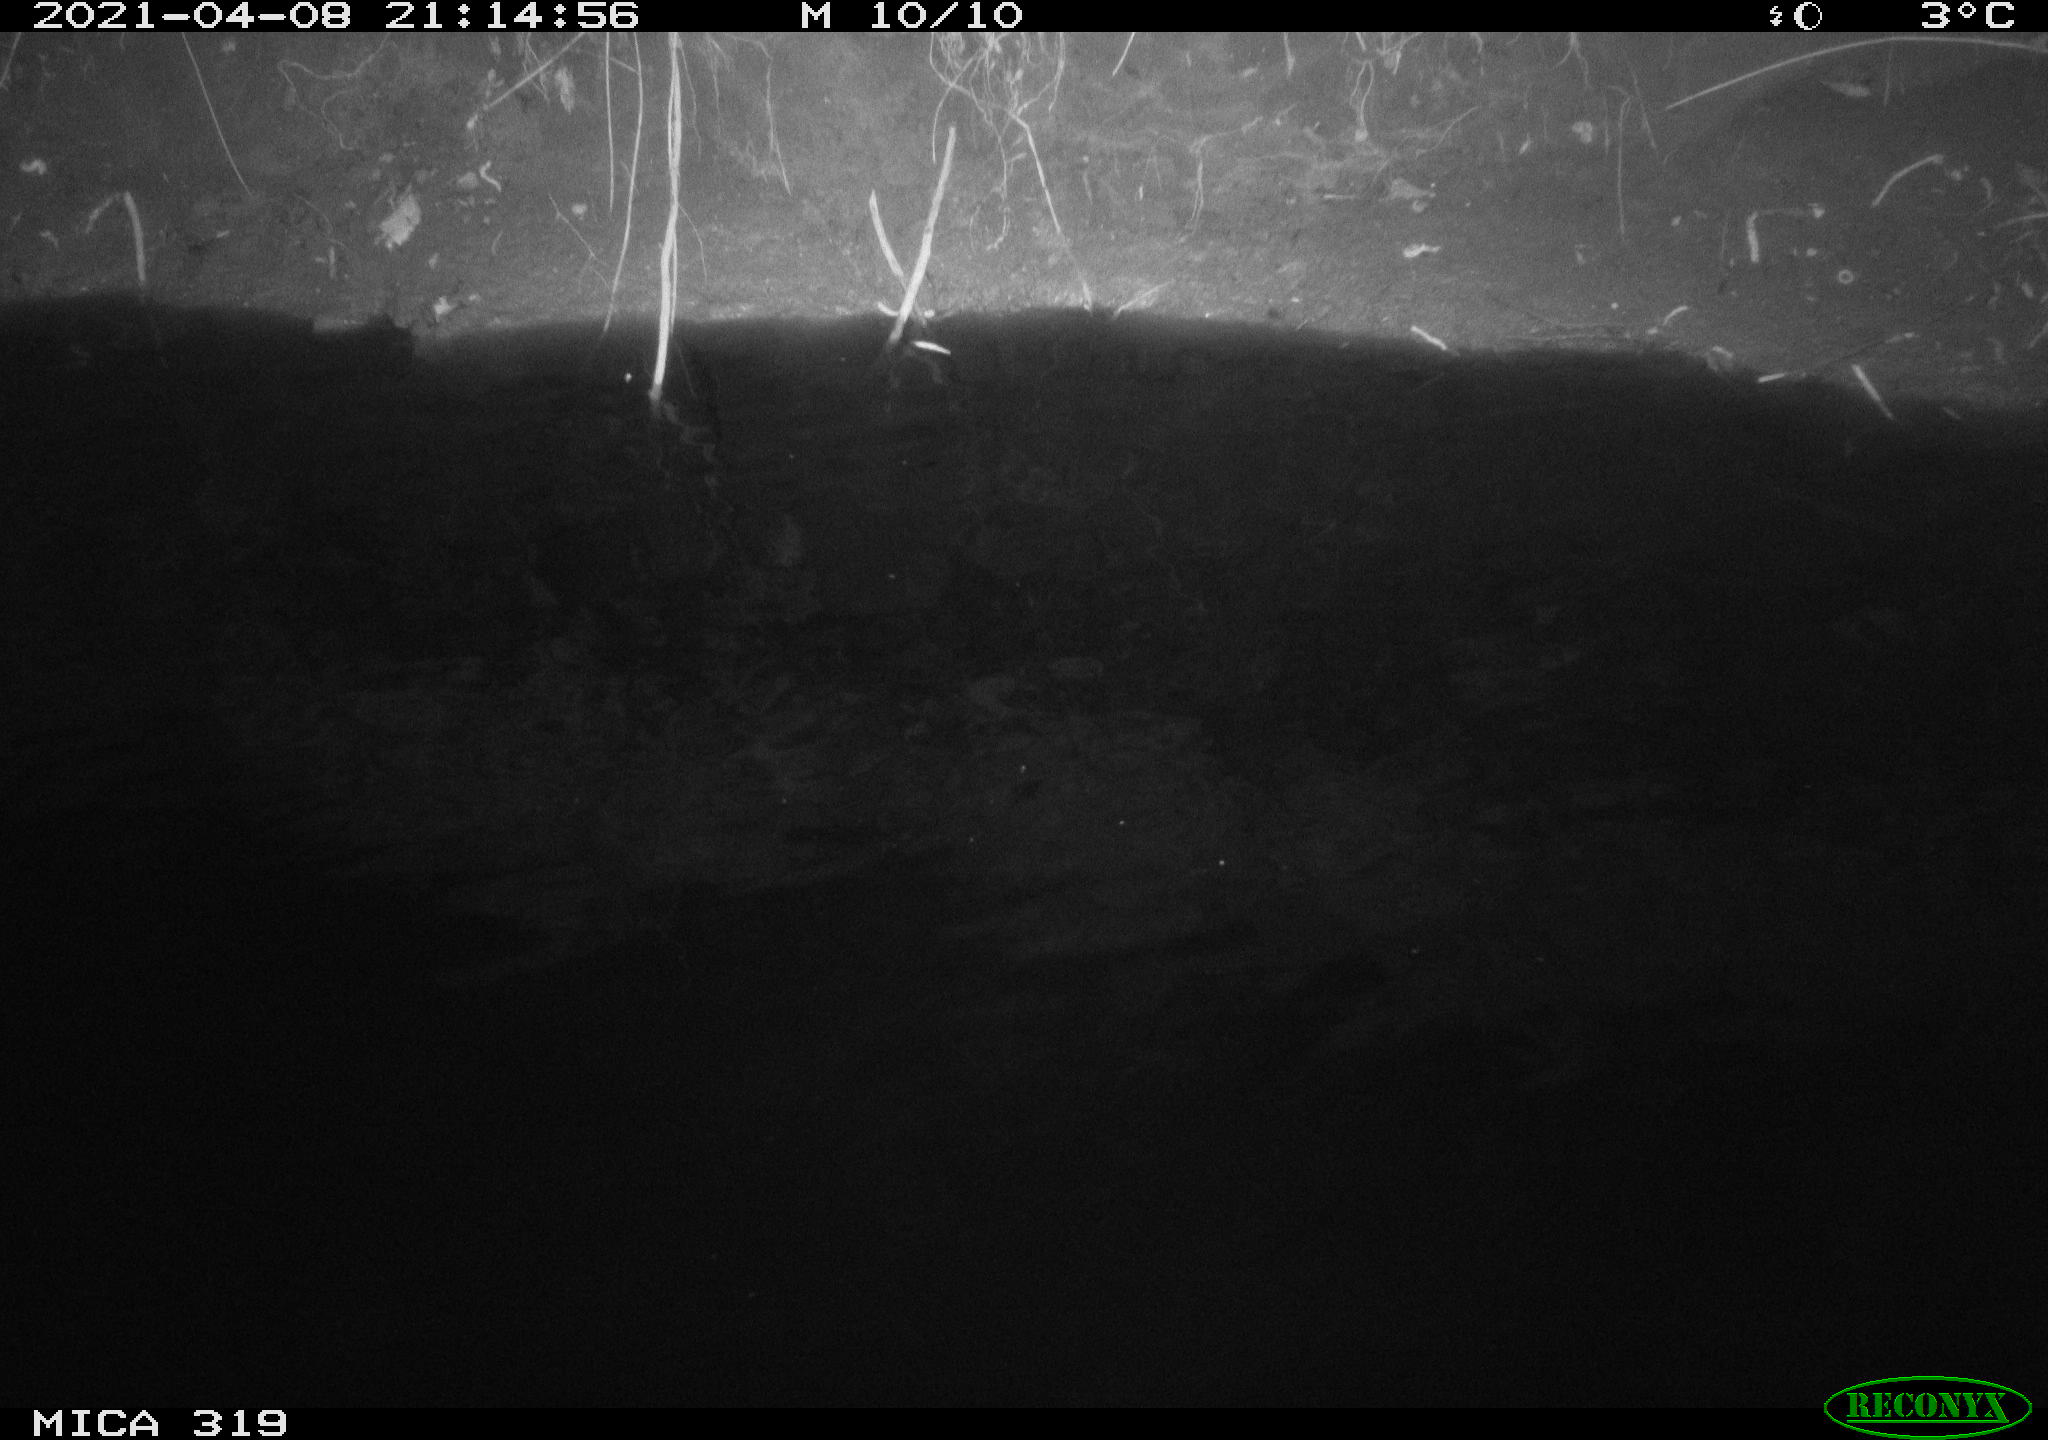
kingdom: Animalia
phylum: Chordata
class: Aves
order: Anseriformes
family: Anatidae
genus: Anas
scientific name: Anas platyrhynchos
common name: Mallard
